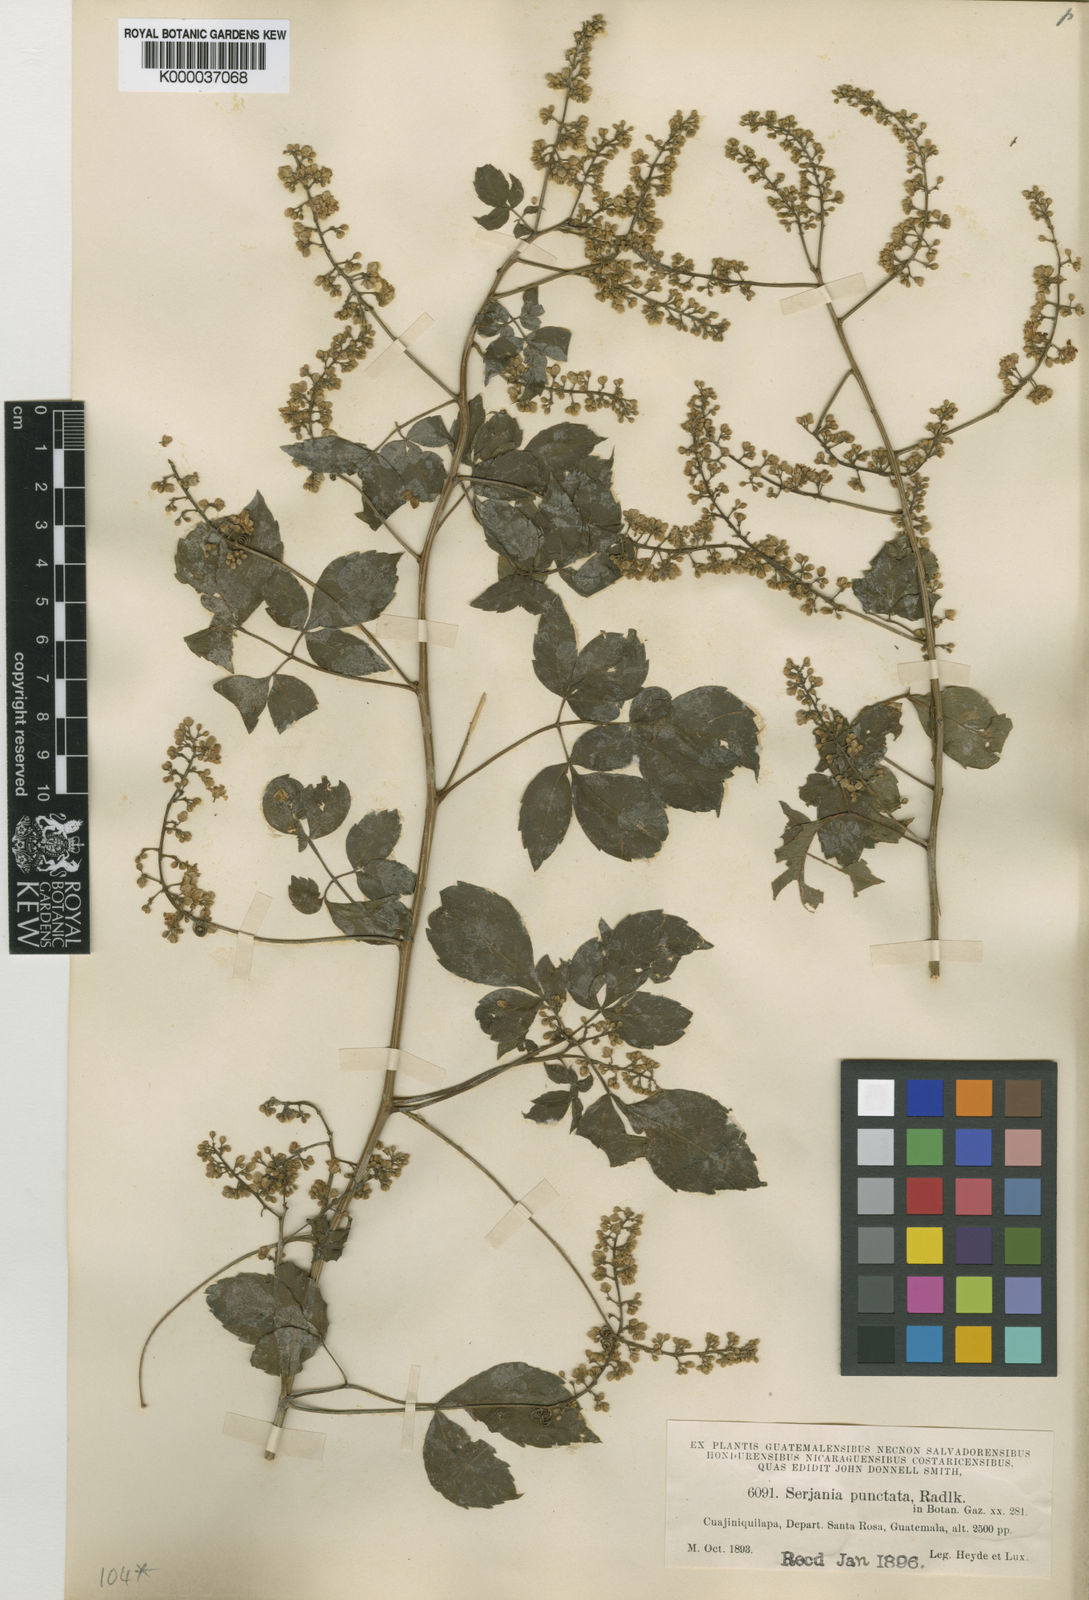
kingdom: Plantae
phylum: Tracheophyta
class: Magnoliopsida
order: Sapindales
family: Sapindaceae
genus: Serjania
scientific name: Serjania punctata
